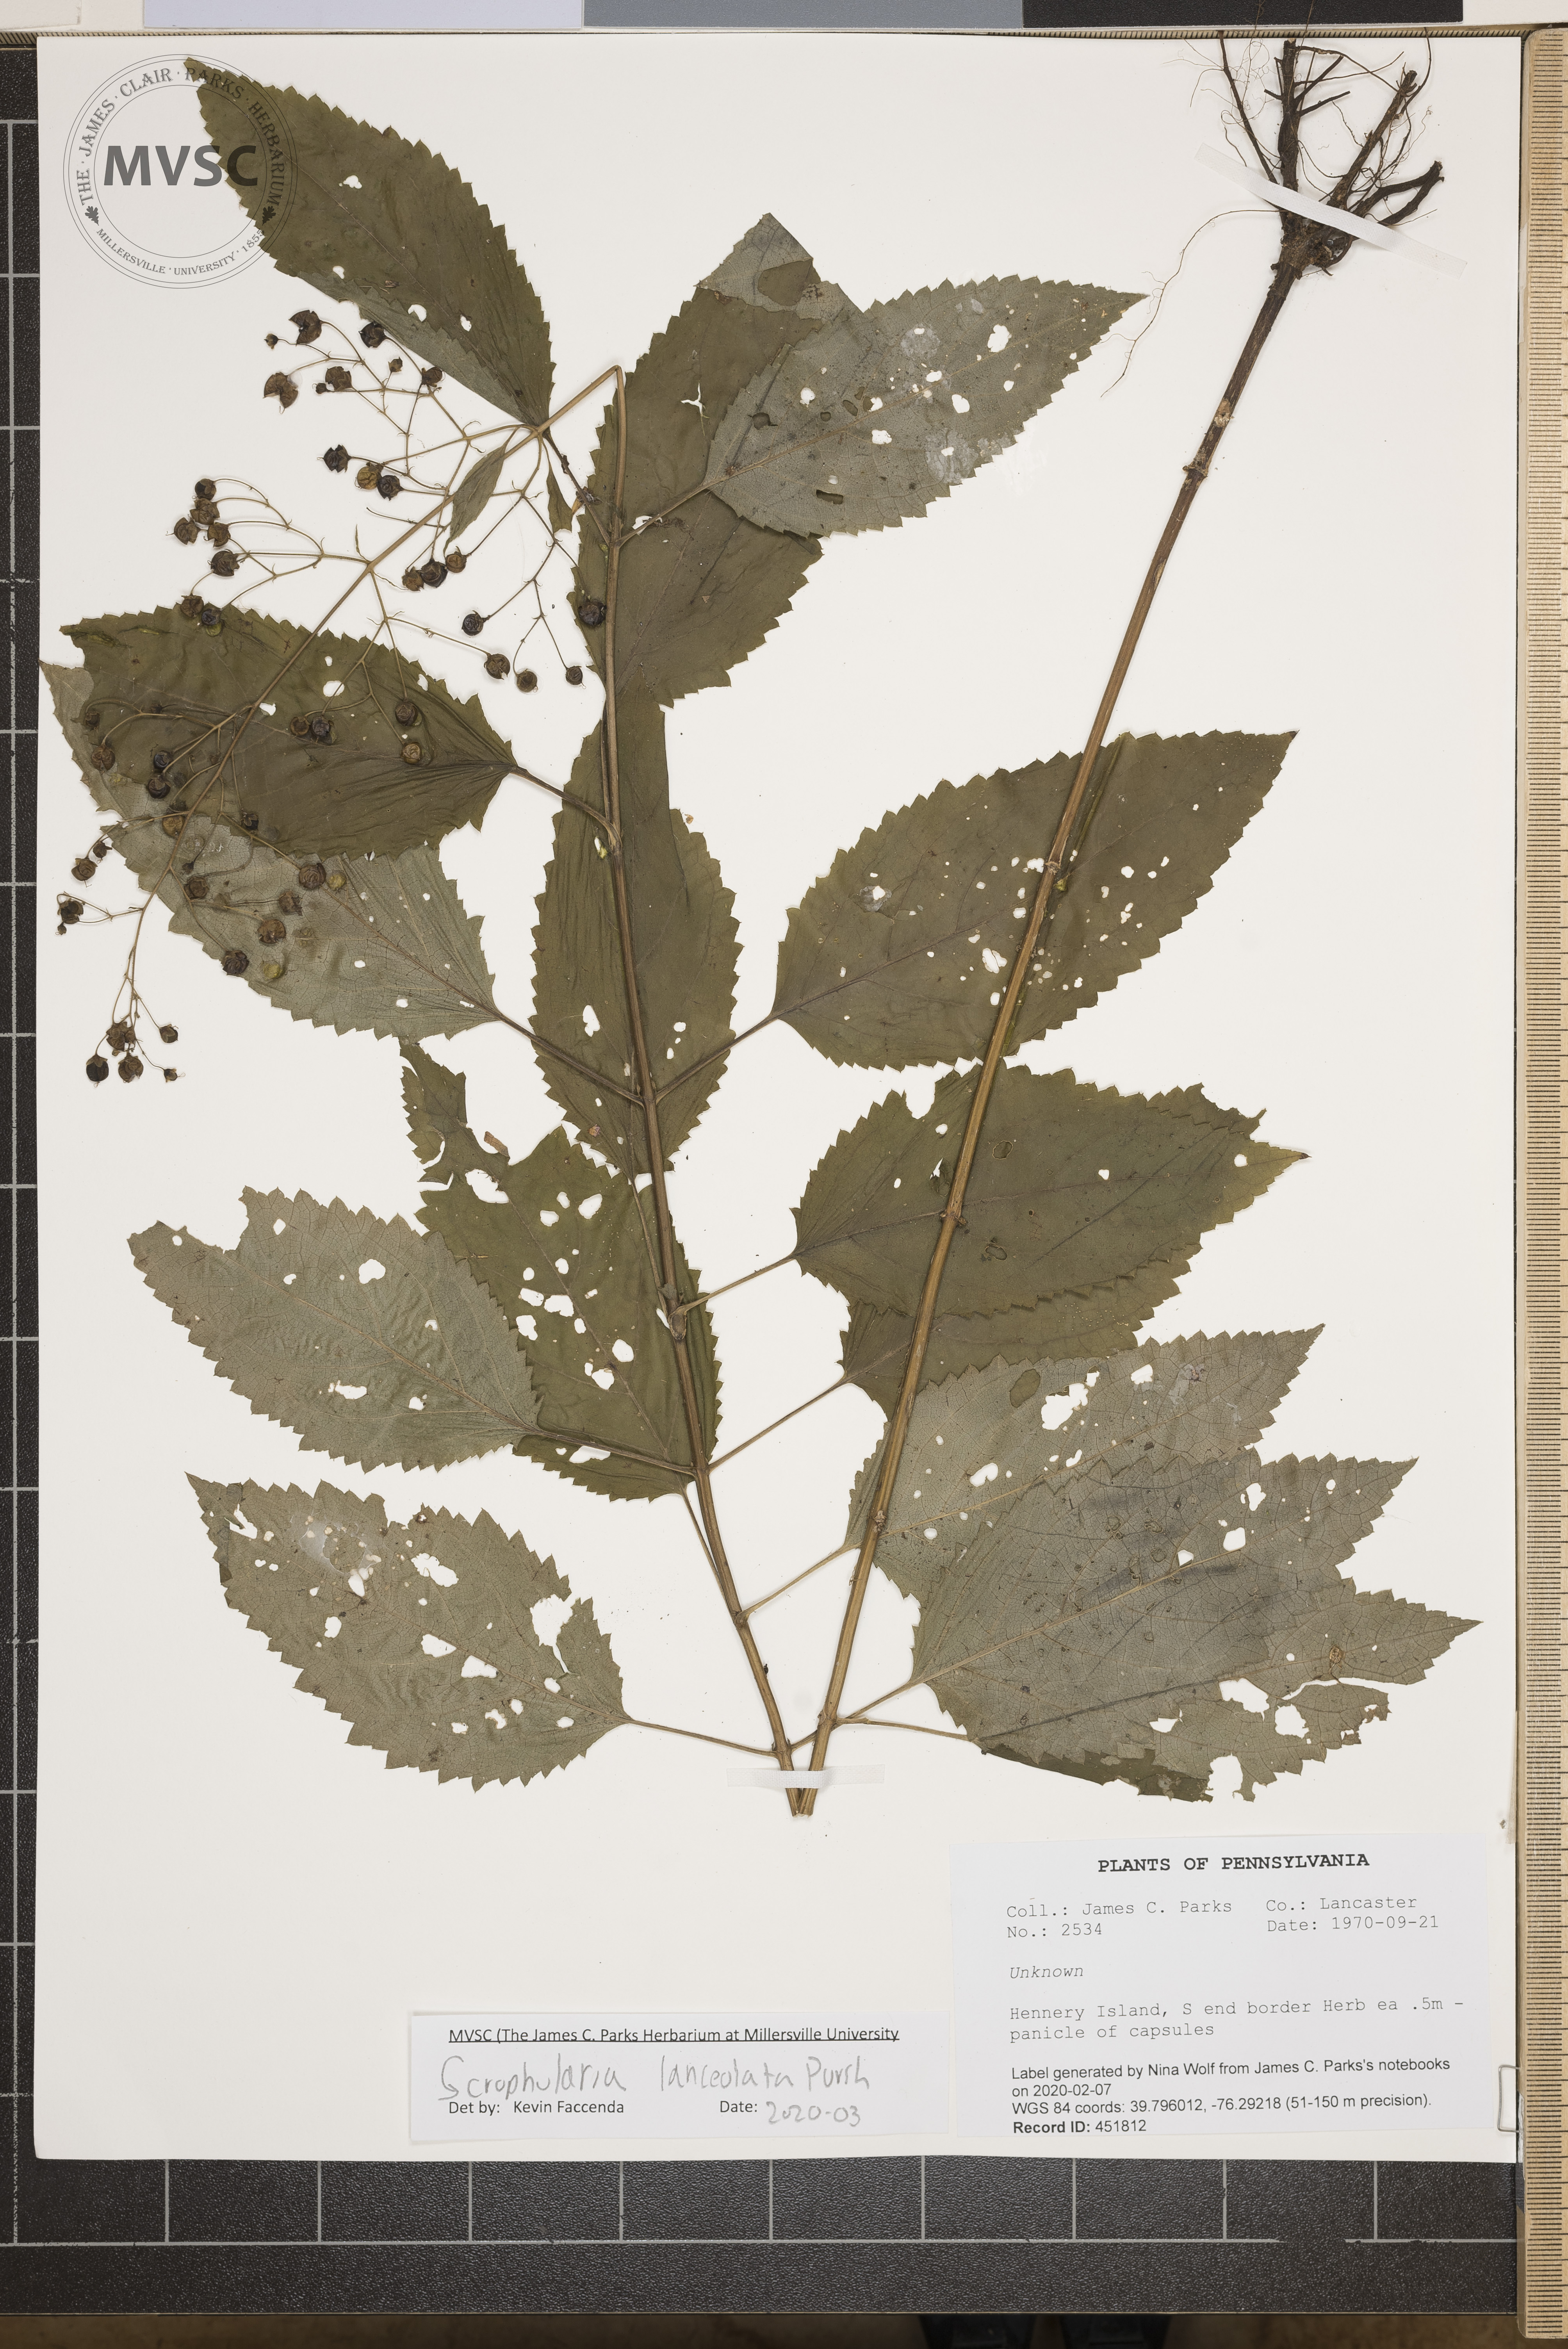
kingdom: Plantae
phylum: Tracheophyta
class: Magnoliopsida
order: Lamiales
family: Scrophulariaceae
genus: Scrophularia
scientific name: Scrophularia lanceolata
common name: American figwort
